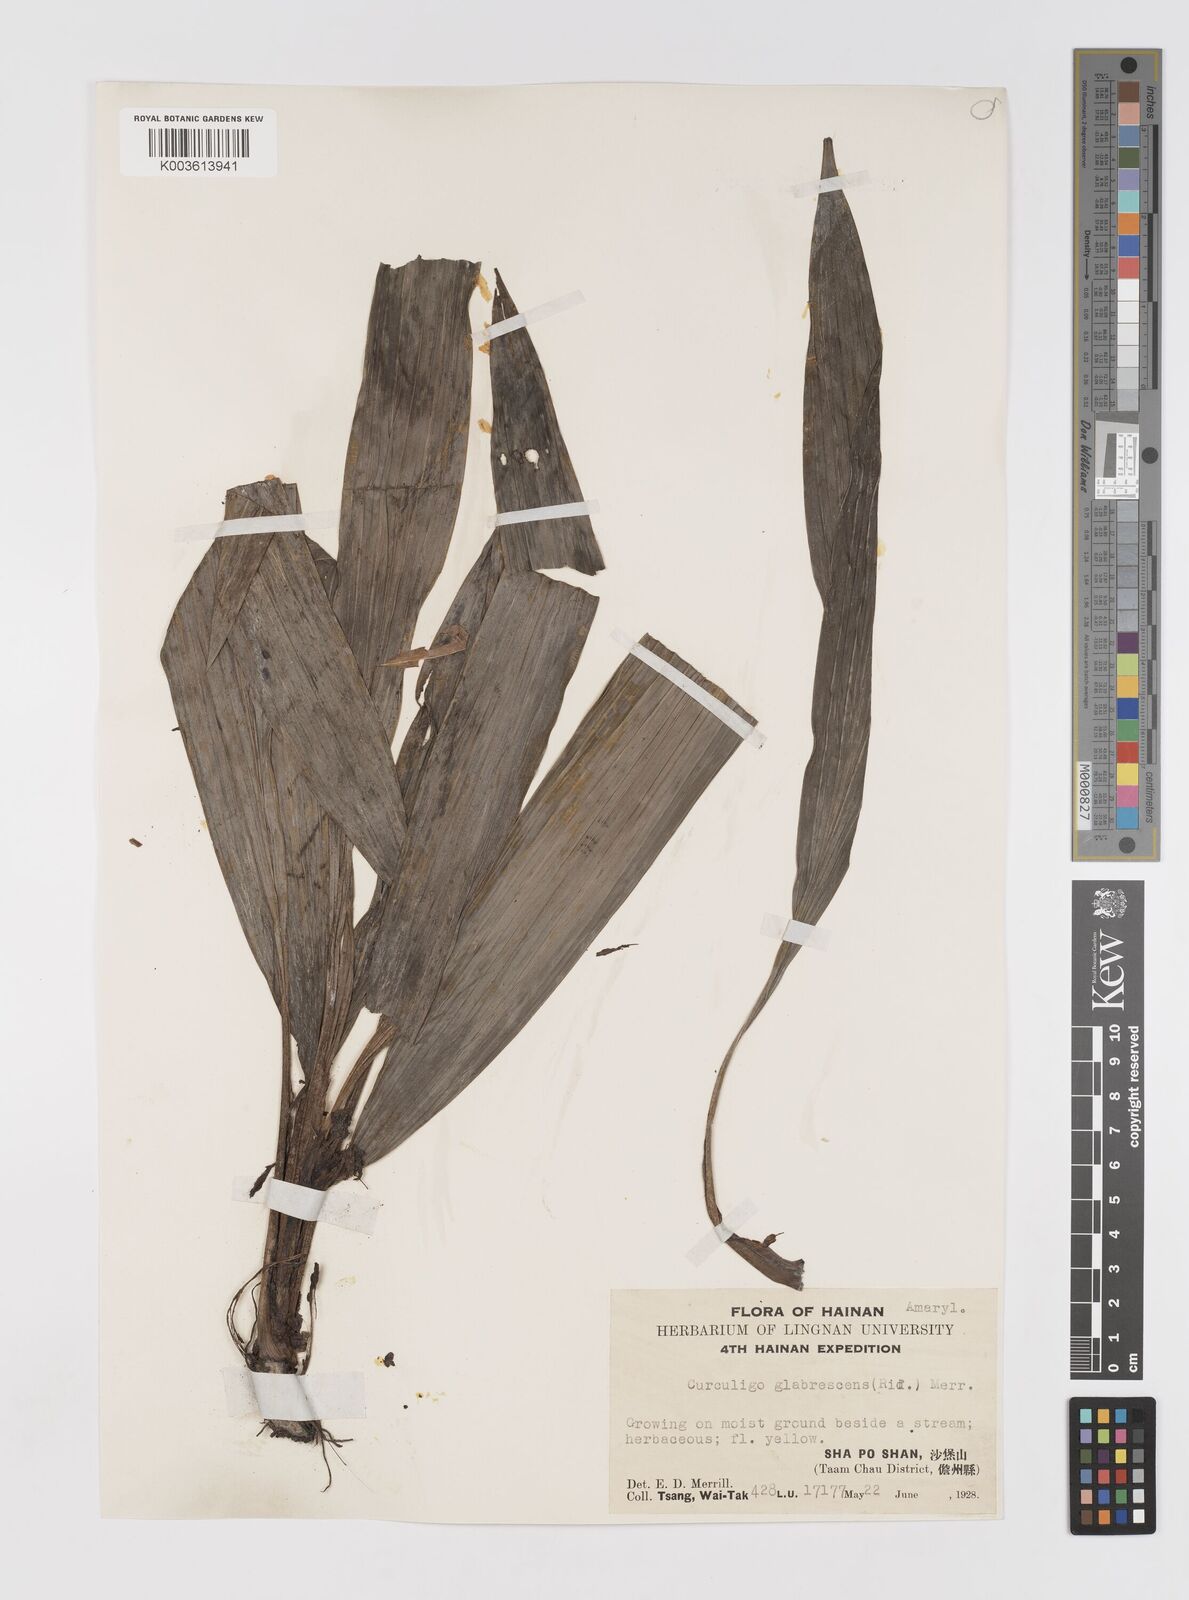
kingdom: Plantae
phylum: Tracheophyta
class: Liliopsida
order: Asparagales
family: Hypoxidaceae
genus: Curculigo
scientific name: Curculigo latifolia
